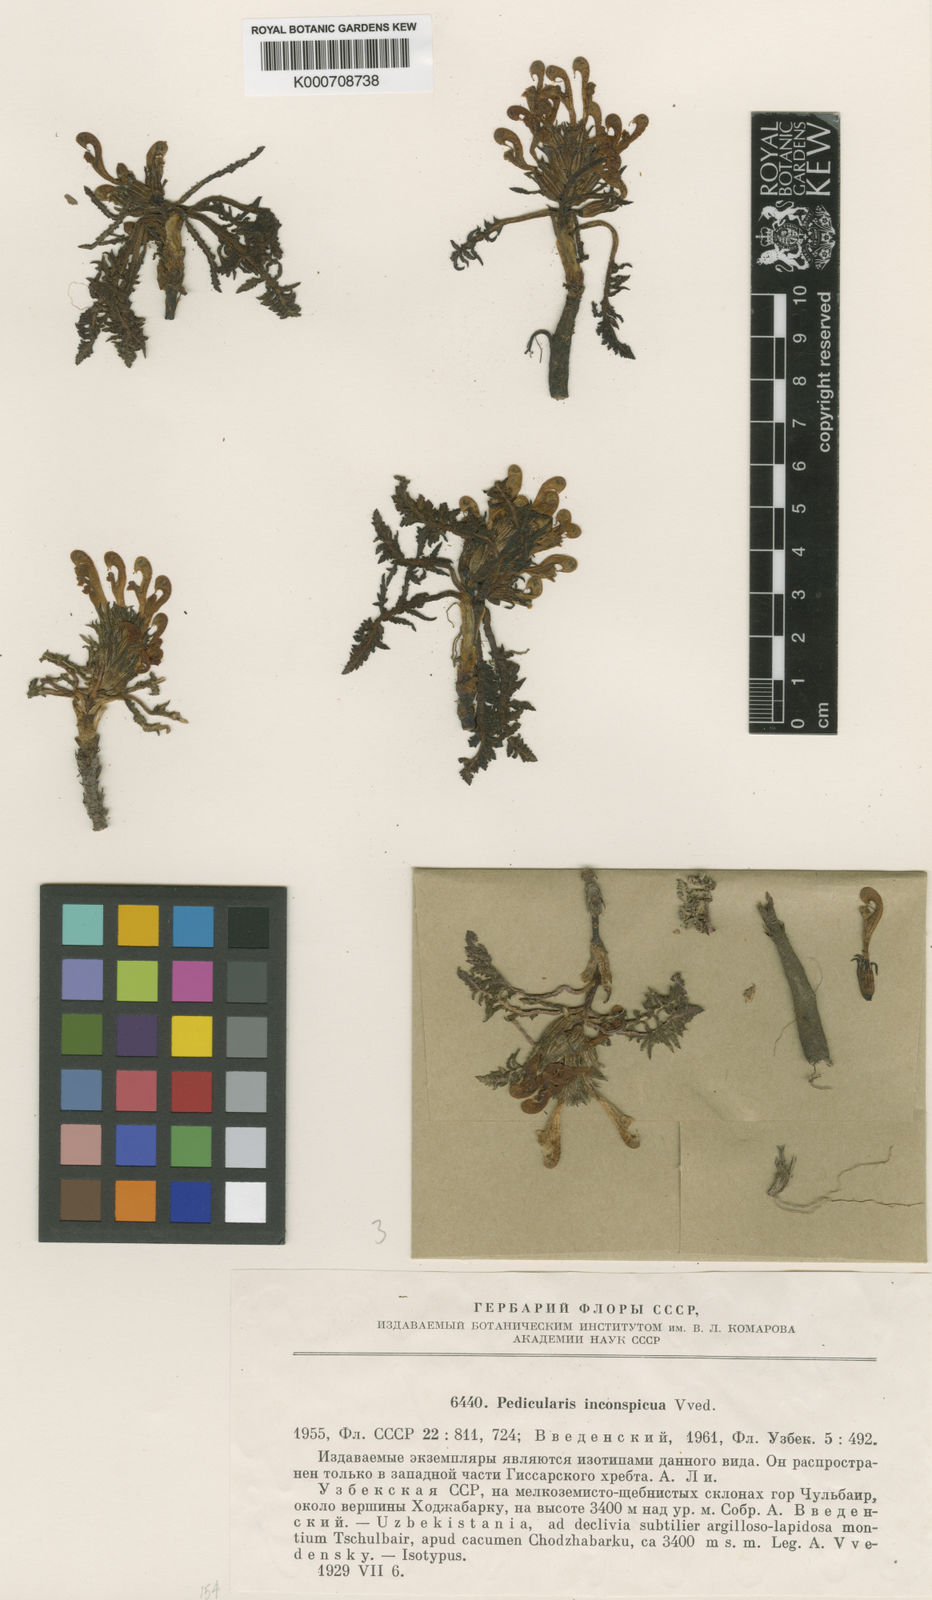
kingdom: Plantae
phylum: Tracheophyta
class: Magnoliopsida
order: Lamiales
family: Orobanchaceae
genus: Pedicularis
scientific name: Pedicularis multicolor
